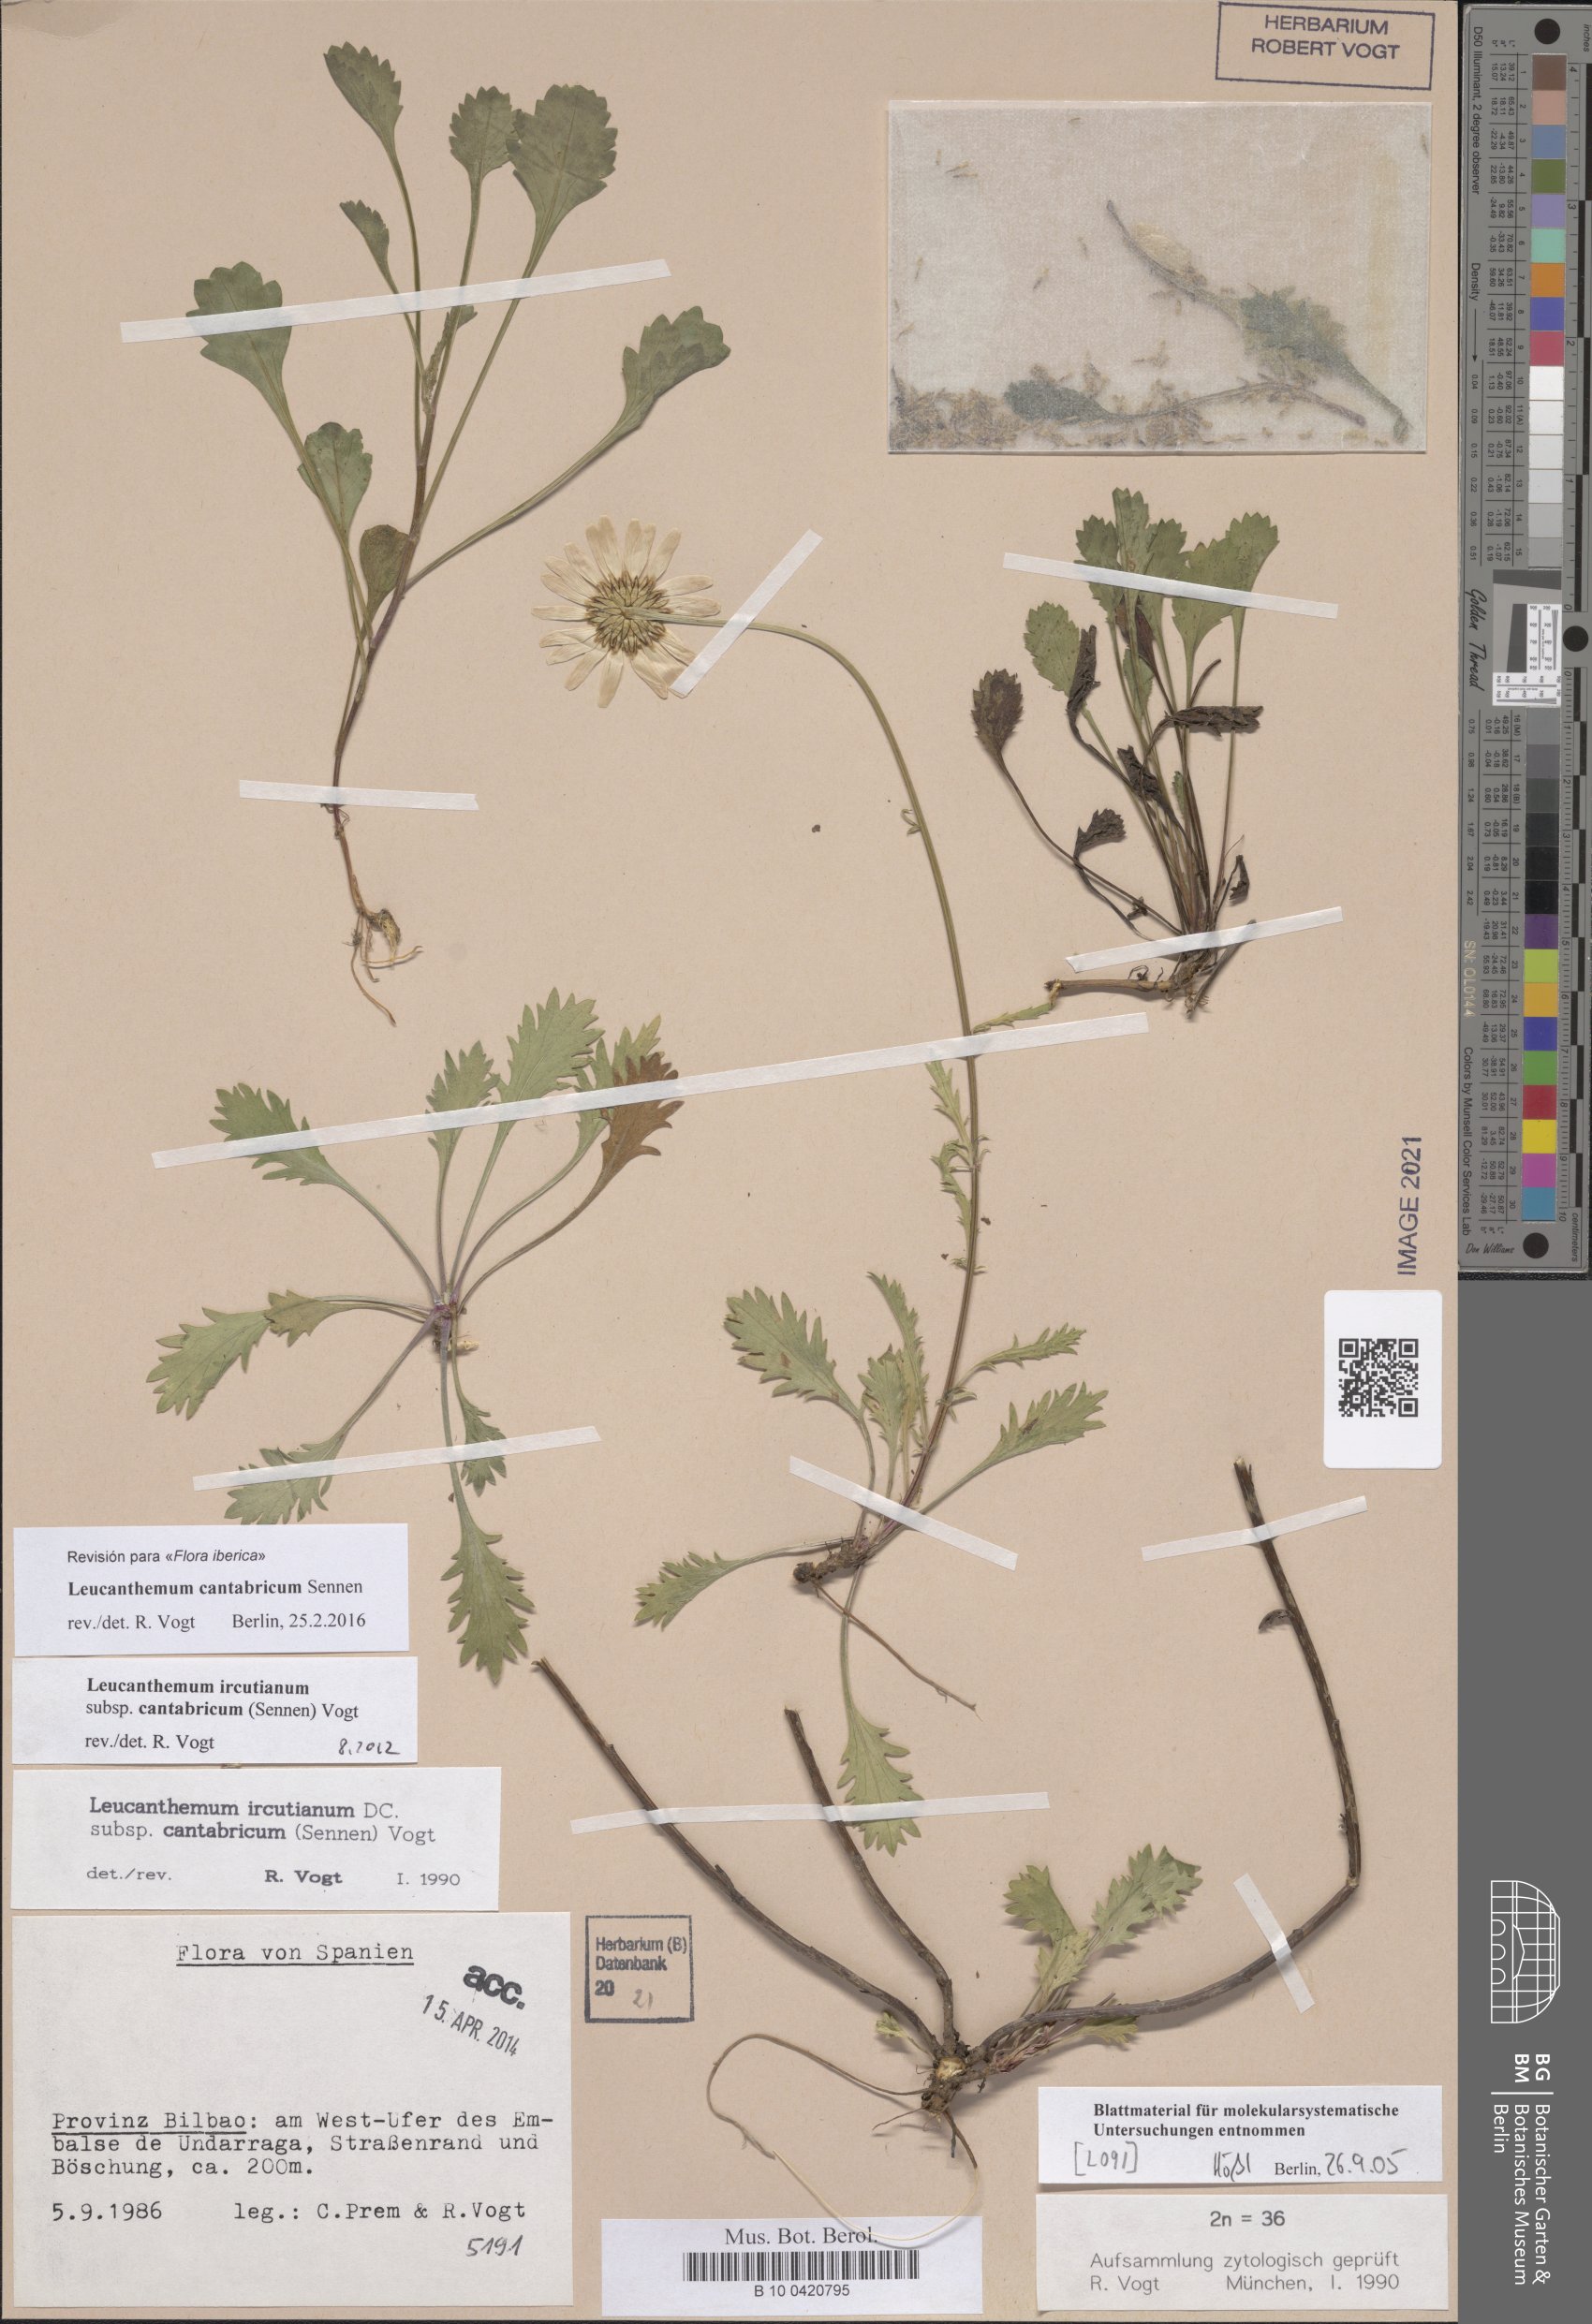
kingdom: Plantae
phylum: Tracheophyta
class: Magnoliopsida
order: Asterales
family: Asteraceae
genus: Leucanthemum
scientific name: Leucanthemum cantabricum
